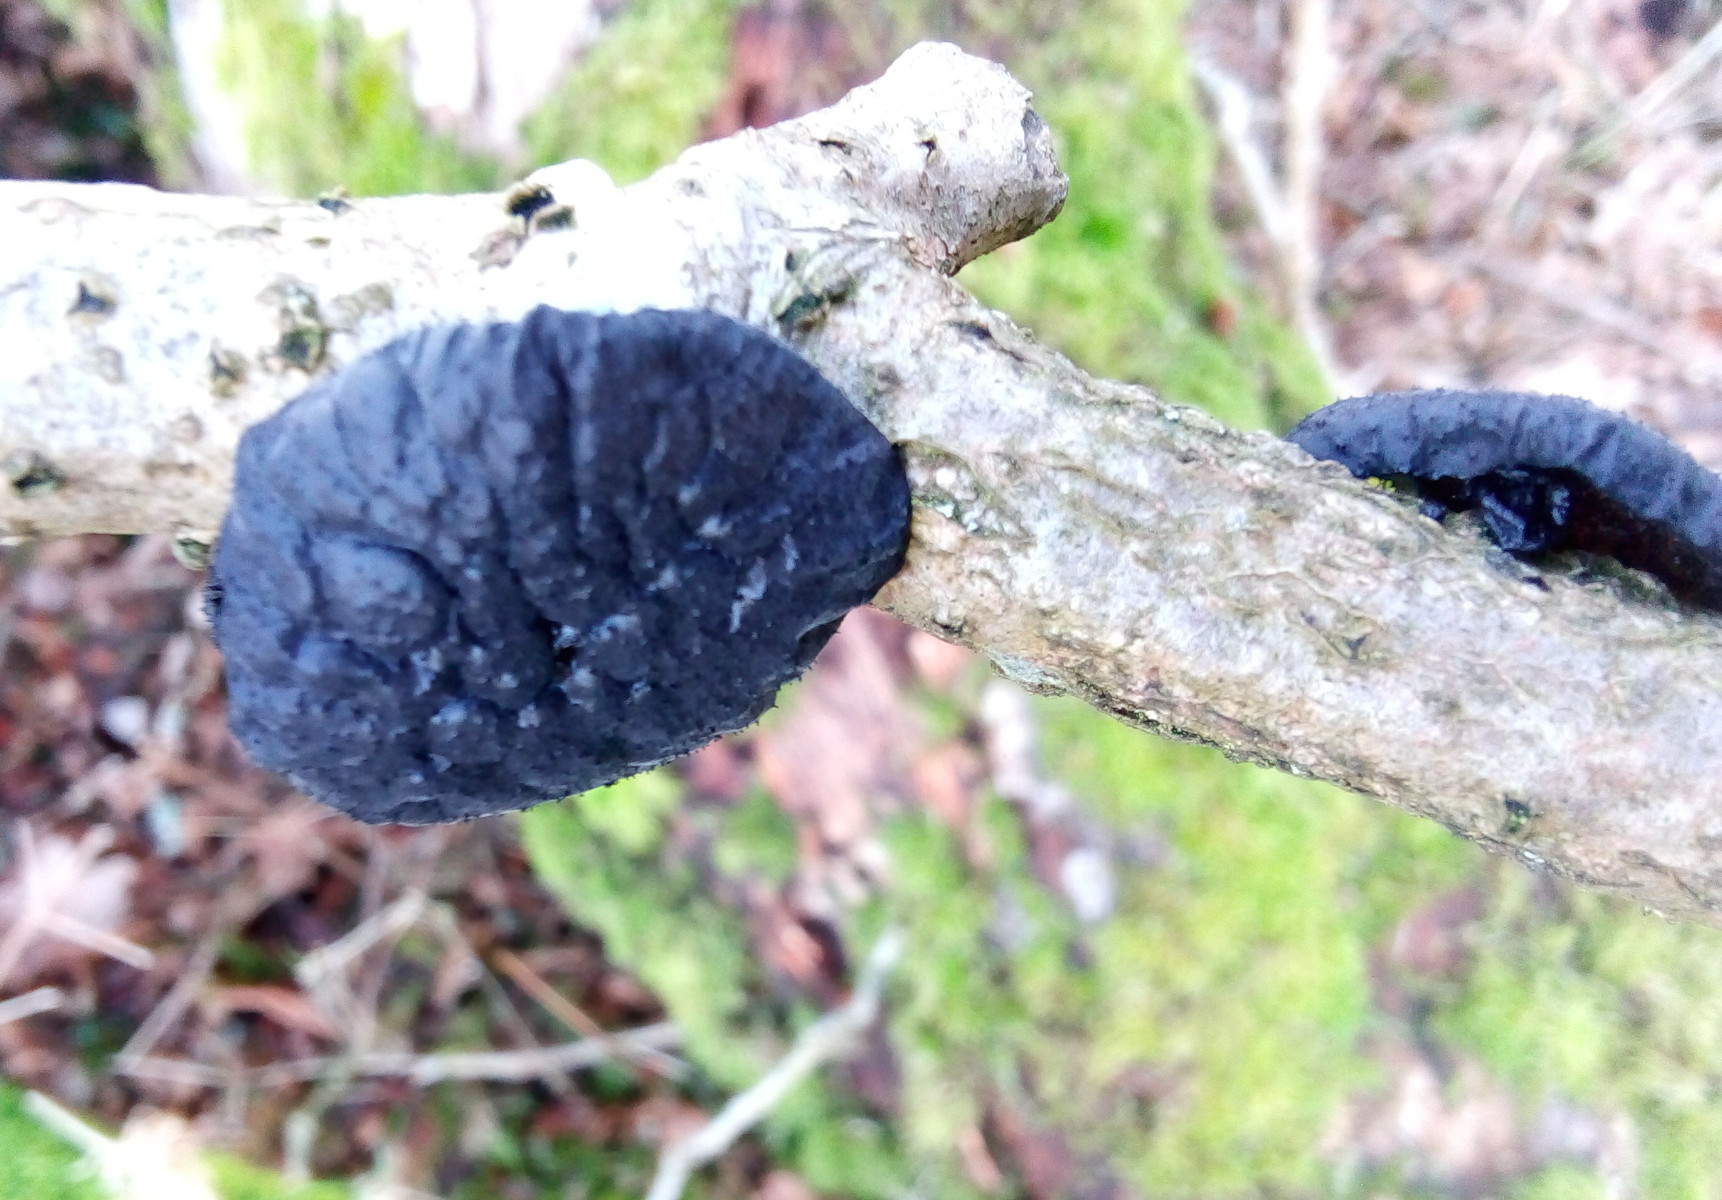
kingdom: Fungi
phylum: Basidiomycota
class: Agaricomycetes
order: Auriculariales
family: Auriculariaceae
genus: Exidia
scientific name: Exidia glandulosa
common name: ege-bævretop
